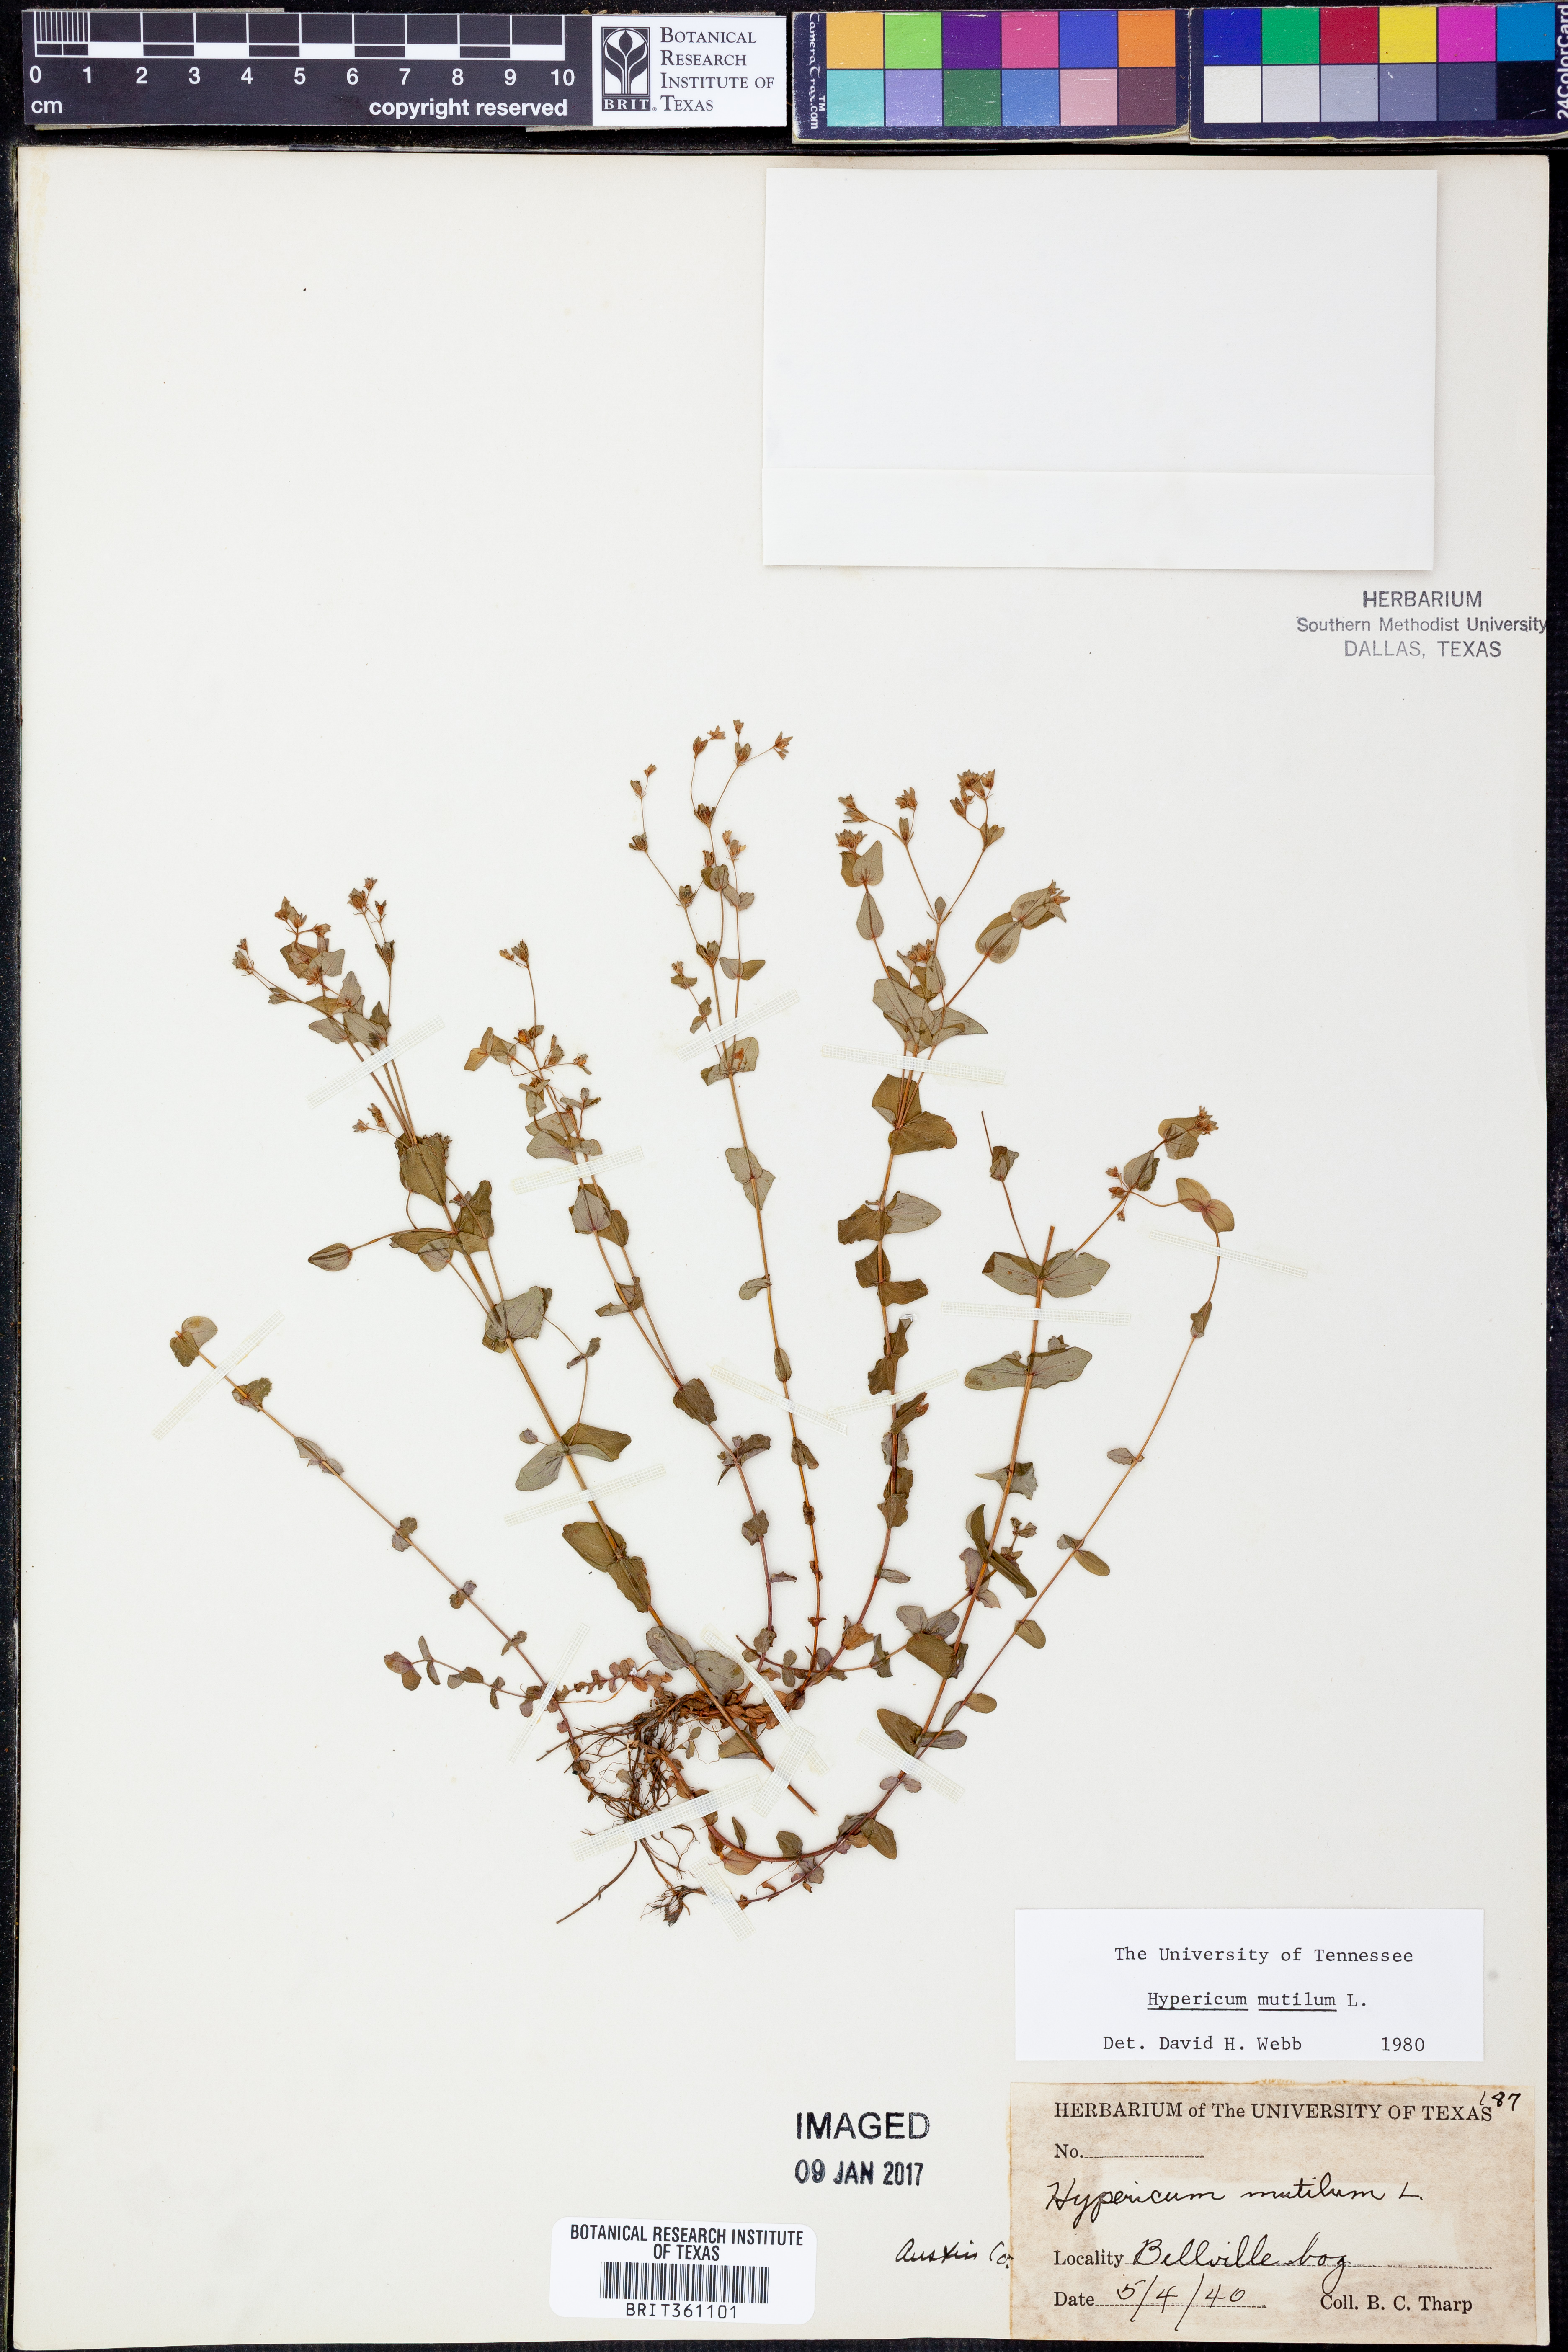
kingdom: Plantae
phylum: Tracheophyta
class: Magnoliopsida
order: Malpighiales
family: Hypericaceae
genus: Hypericum
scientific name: Hypericum mutilum
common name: Dwarf st. john's-wort
